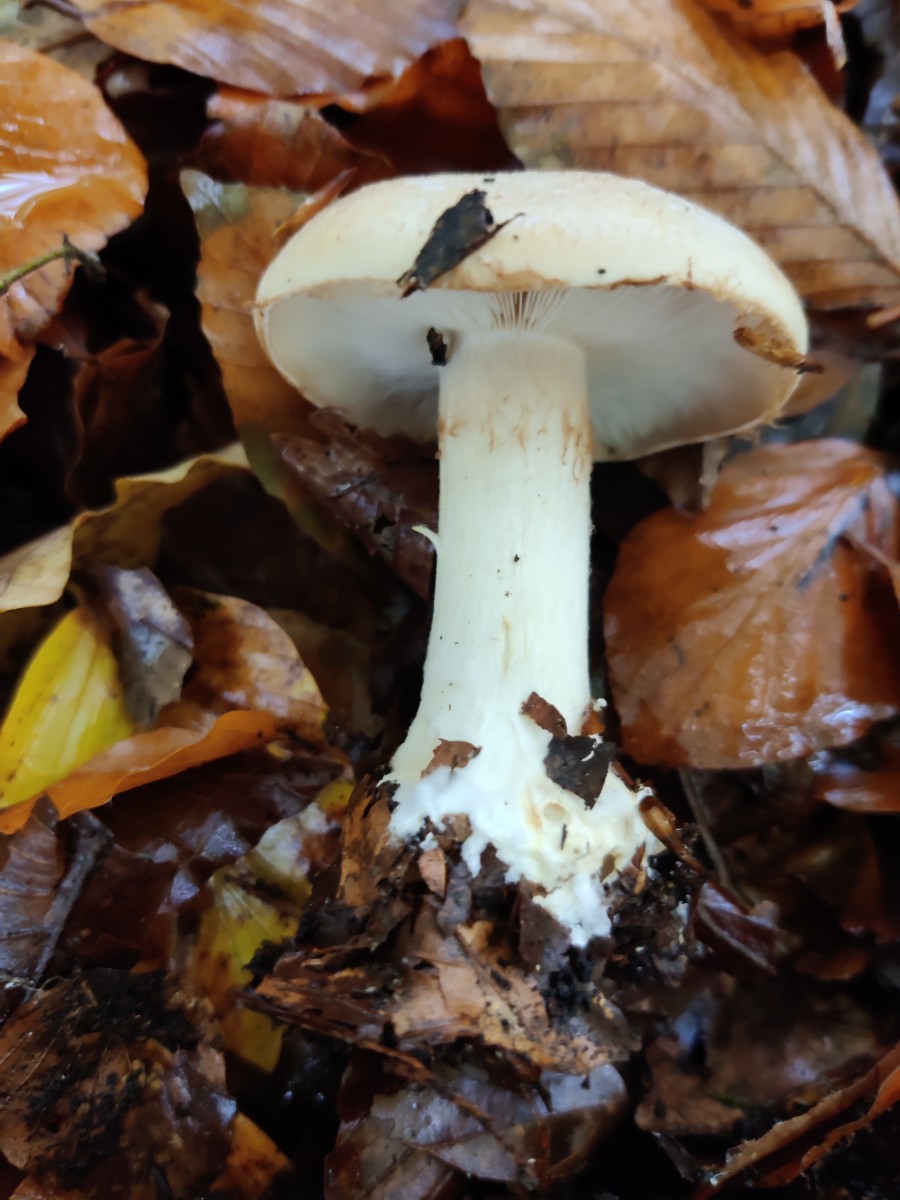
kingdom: Fungi
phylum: Basidiomycota
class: Agaricomycetes
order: Agaricales
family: Cortinariaceae
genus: Thaxterogaster
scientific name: Thaxterogaster talus
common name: knogle-slørhat
